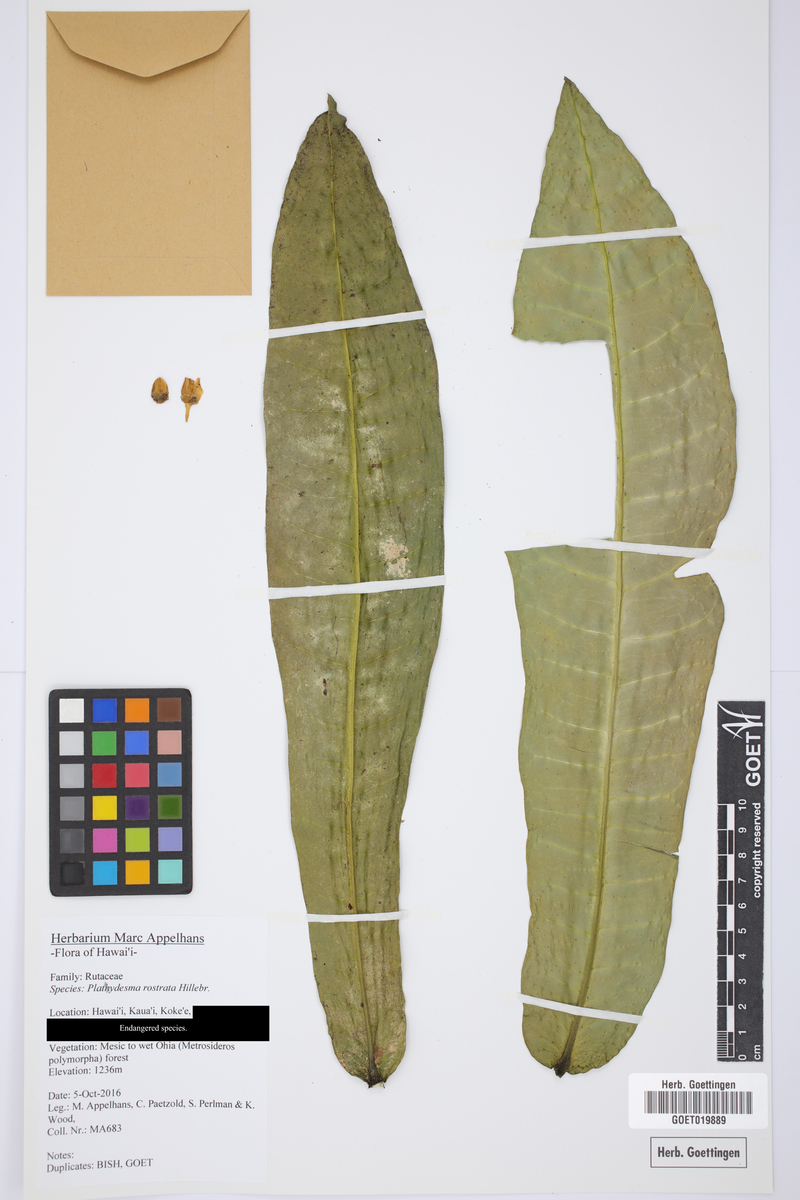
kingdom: Plantae
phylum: Tracheophyta
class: Magnoliopsida
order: Sapindales
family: Rutaceae
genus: Melicope
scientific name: Melicope rostrata
